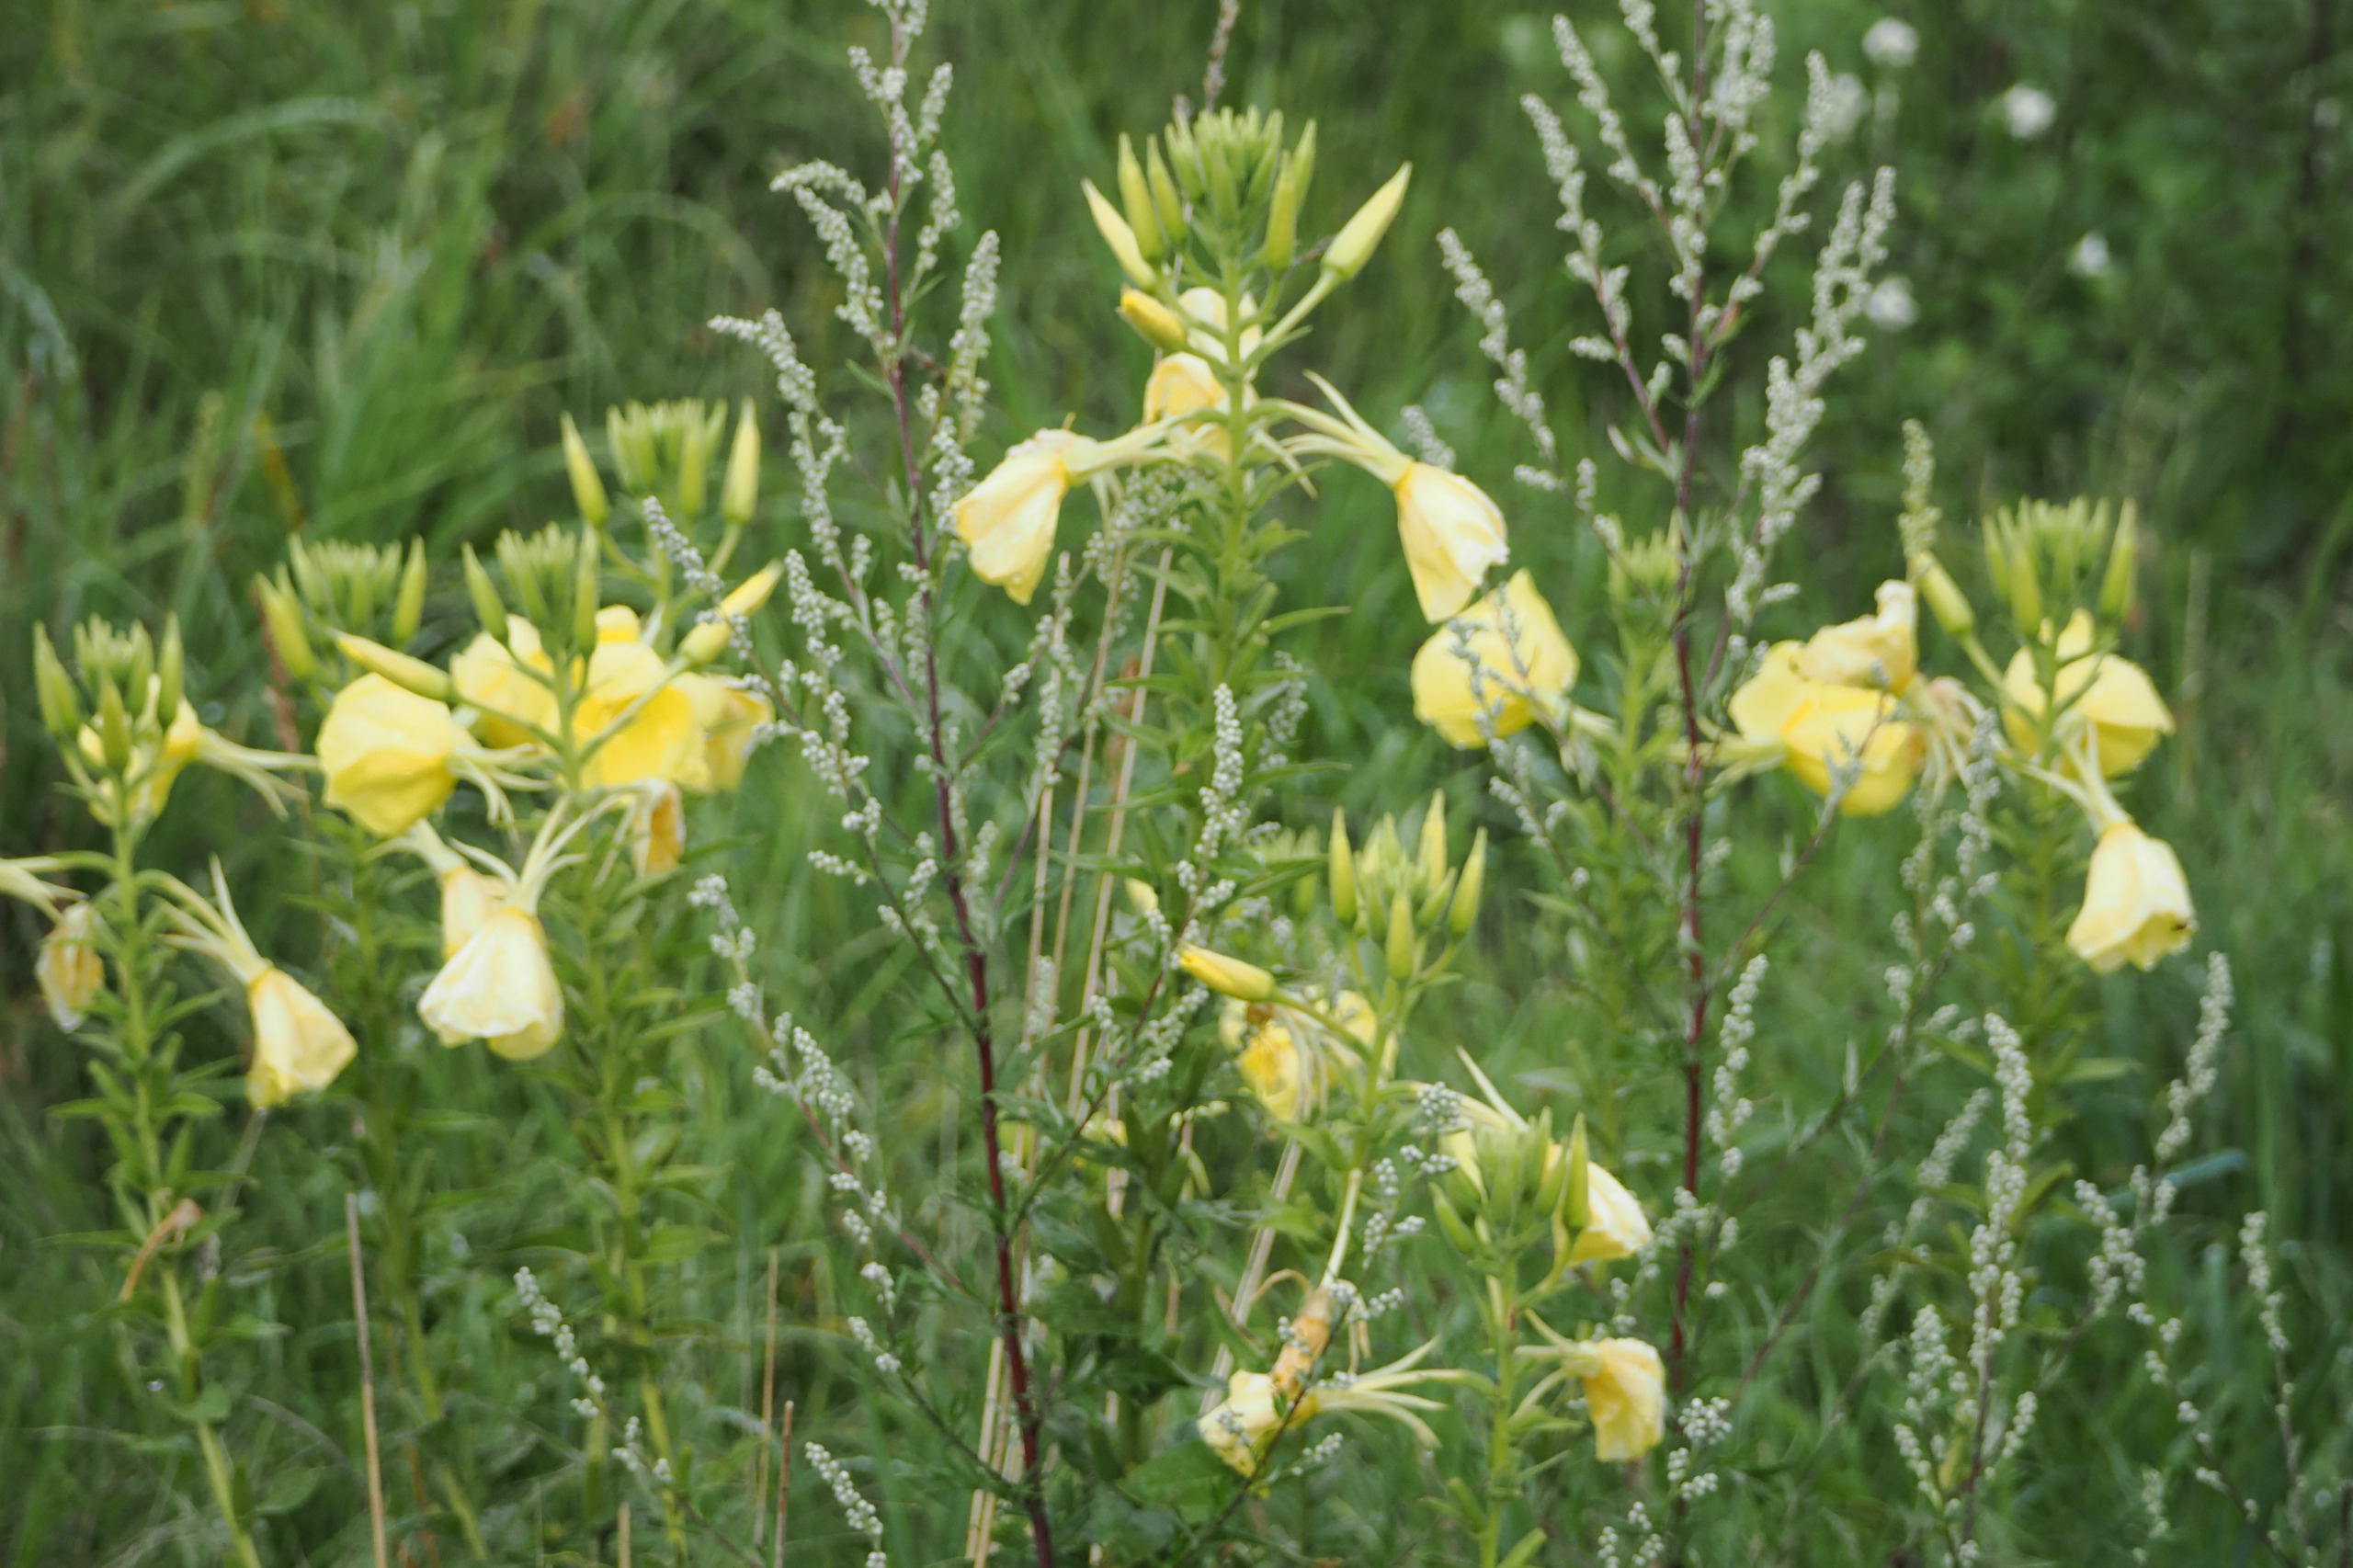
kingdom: Plantae
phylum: Tracheophyta
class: Magnoliopsida
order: Myrtales
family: Onagraceae
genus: Oenothera
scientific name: Oenothera biennis
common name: Toårig natlys
